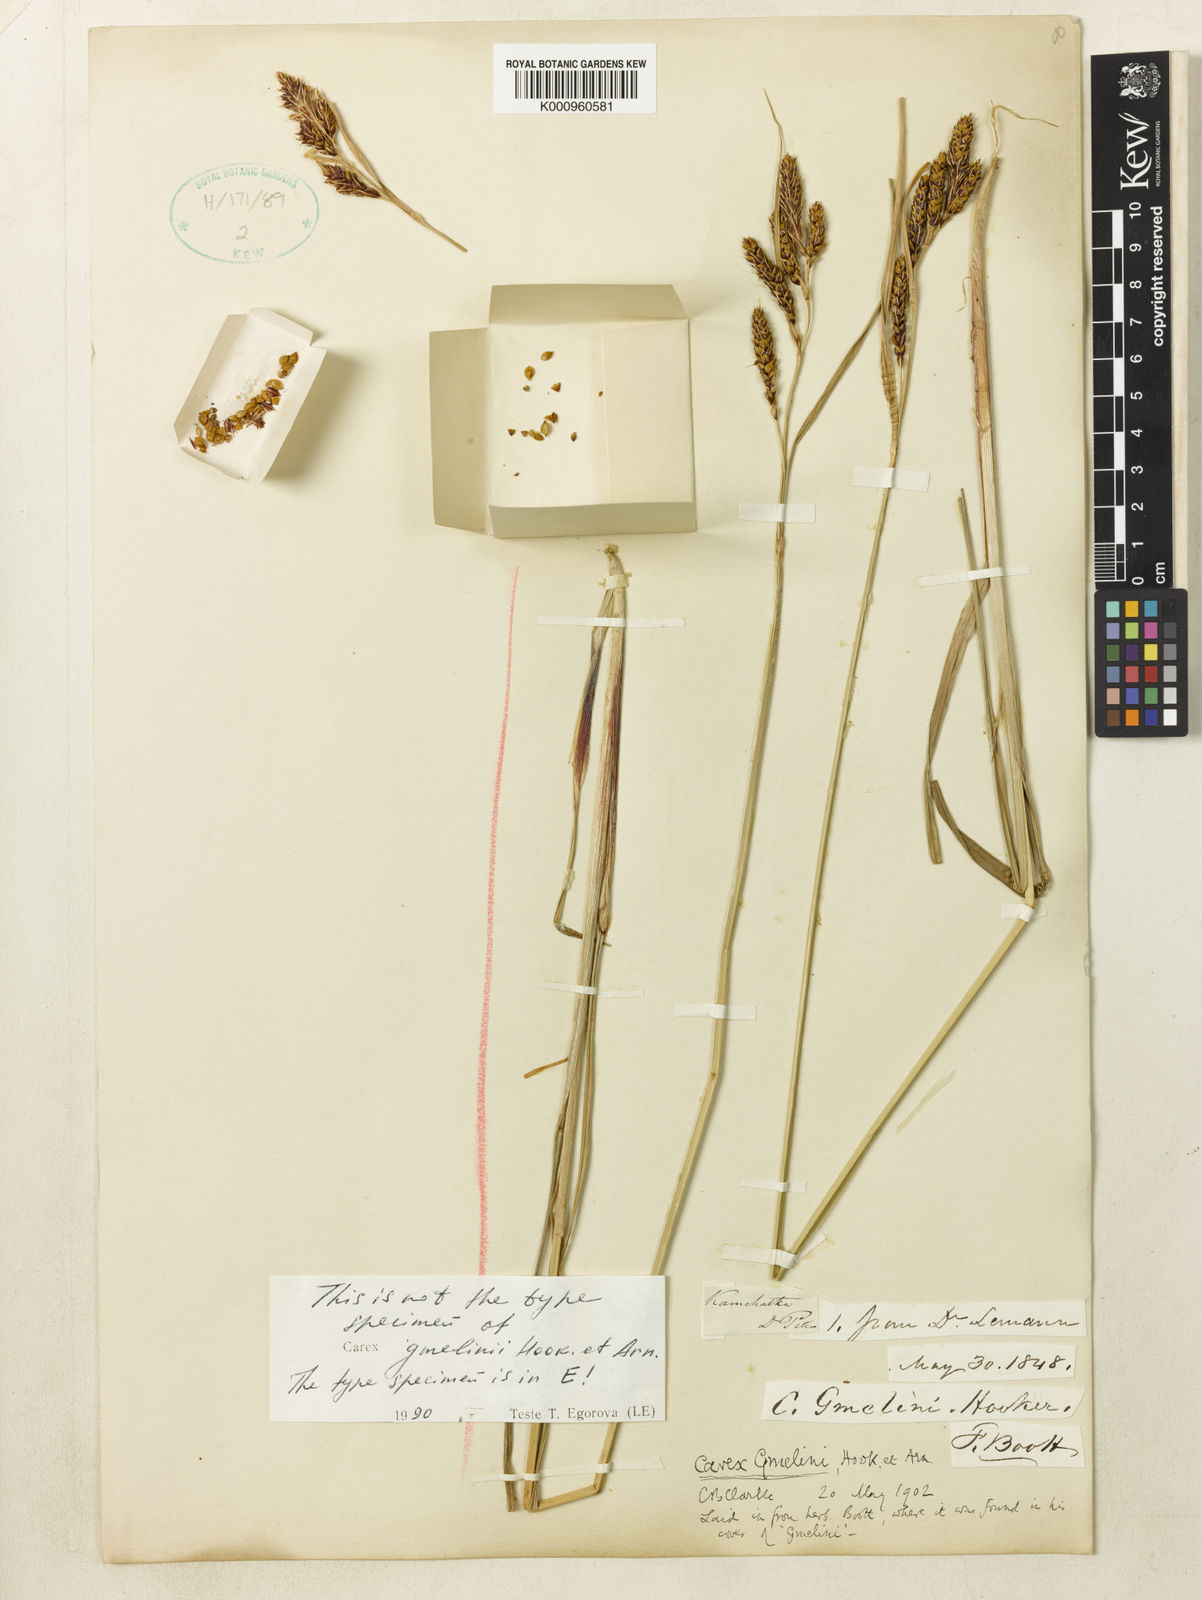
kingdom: Plantae
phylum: Tracheophyta
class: Liliopsida
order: Poales
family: Cyperaceae
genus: Carex
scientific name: Carex gmelinii
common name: Gmelin's sedge
